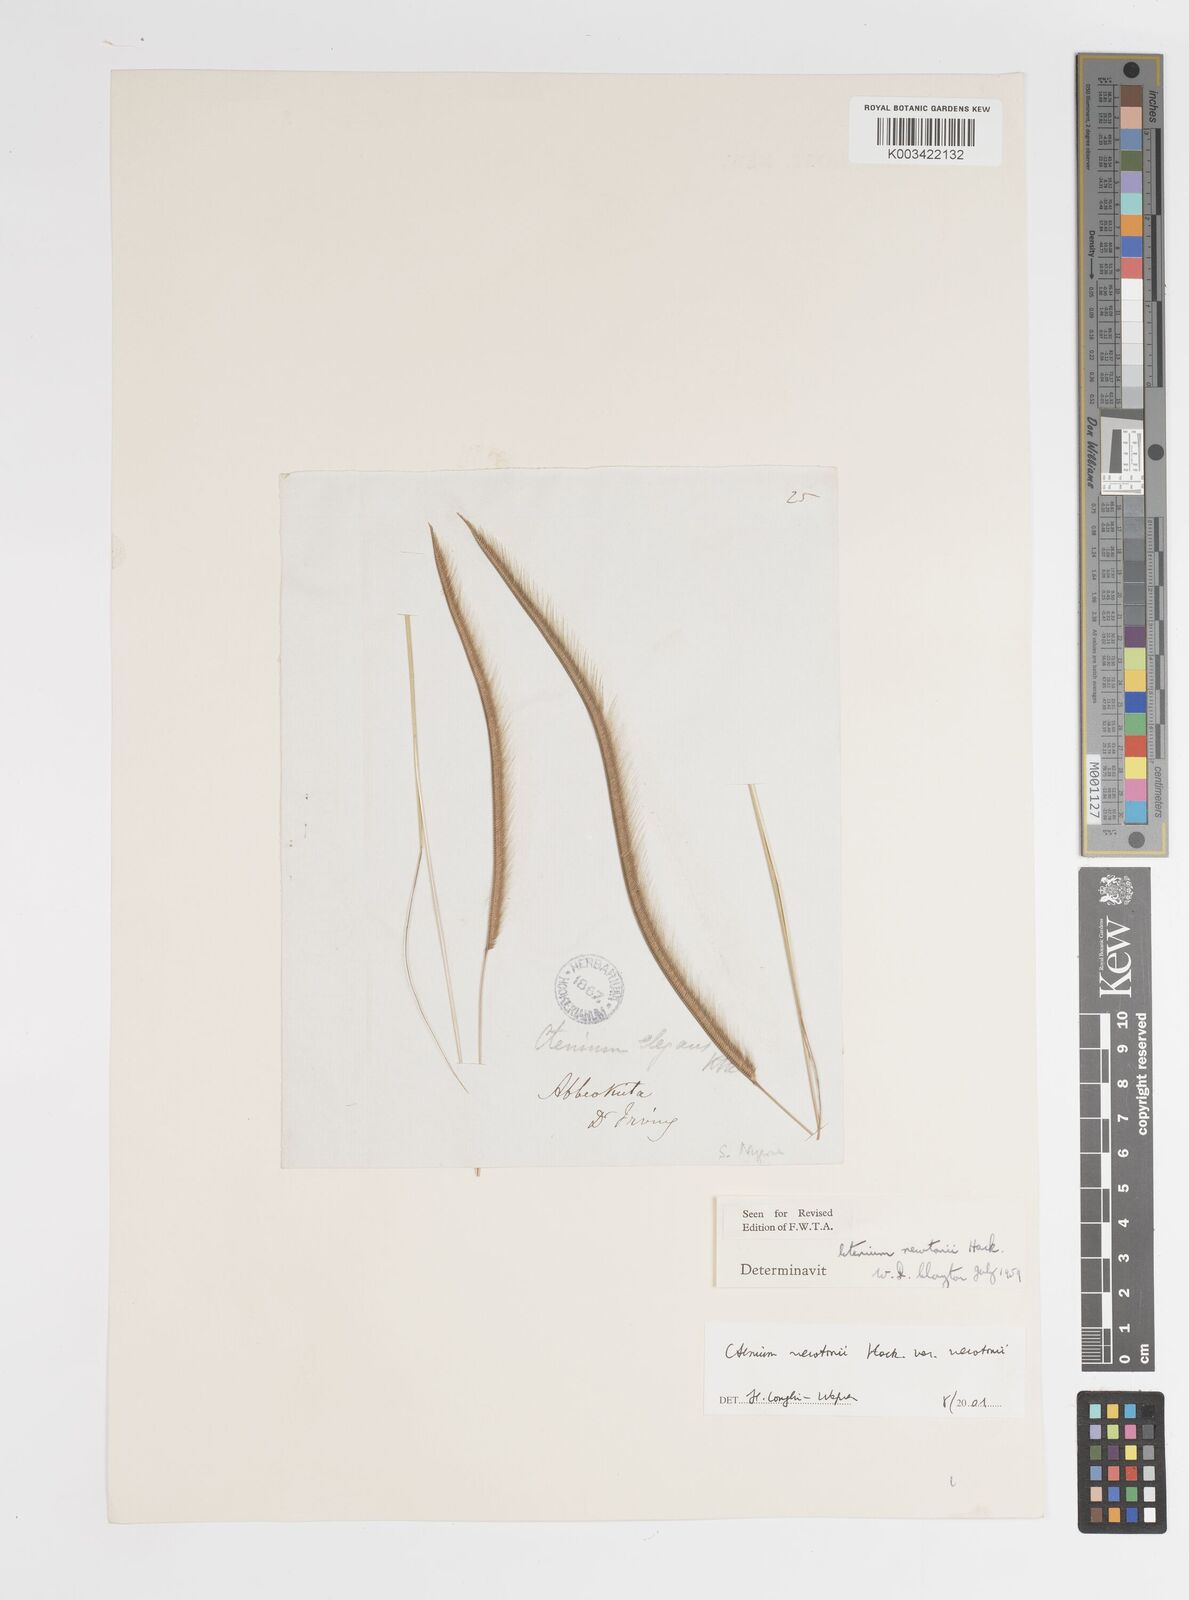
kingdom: Plantae
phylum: Tracheophyta
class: Liliopsida
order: Poales
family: Poaceae
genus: Ctenium
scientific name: Ctenium newtonii
